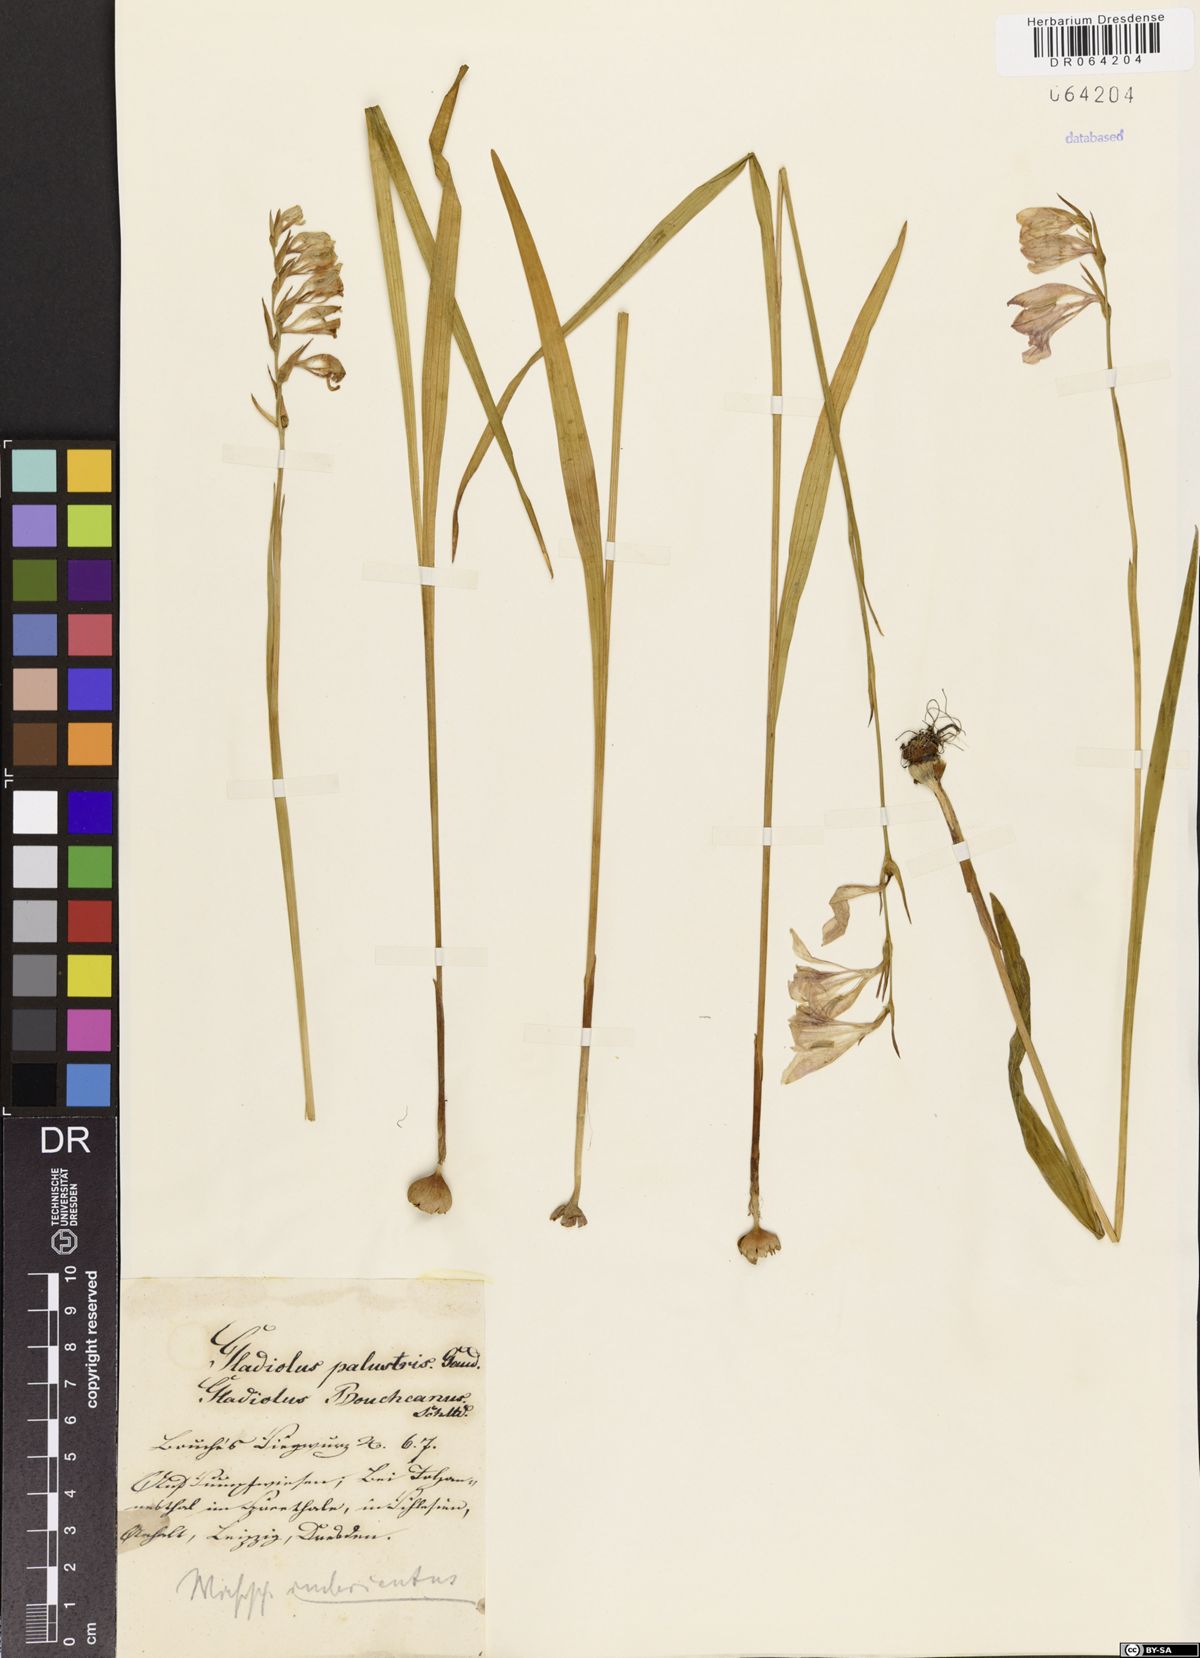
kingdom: Plantae
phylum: Tracheophyta
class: Liliopsida
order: Asparagales
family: Iridaceae
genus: Gladiolus
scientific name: Gladiolus palustris
